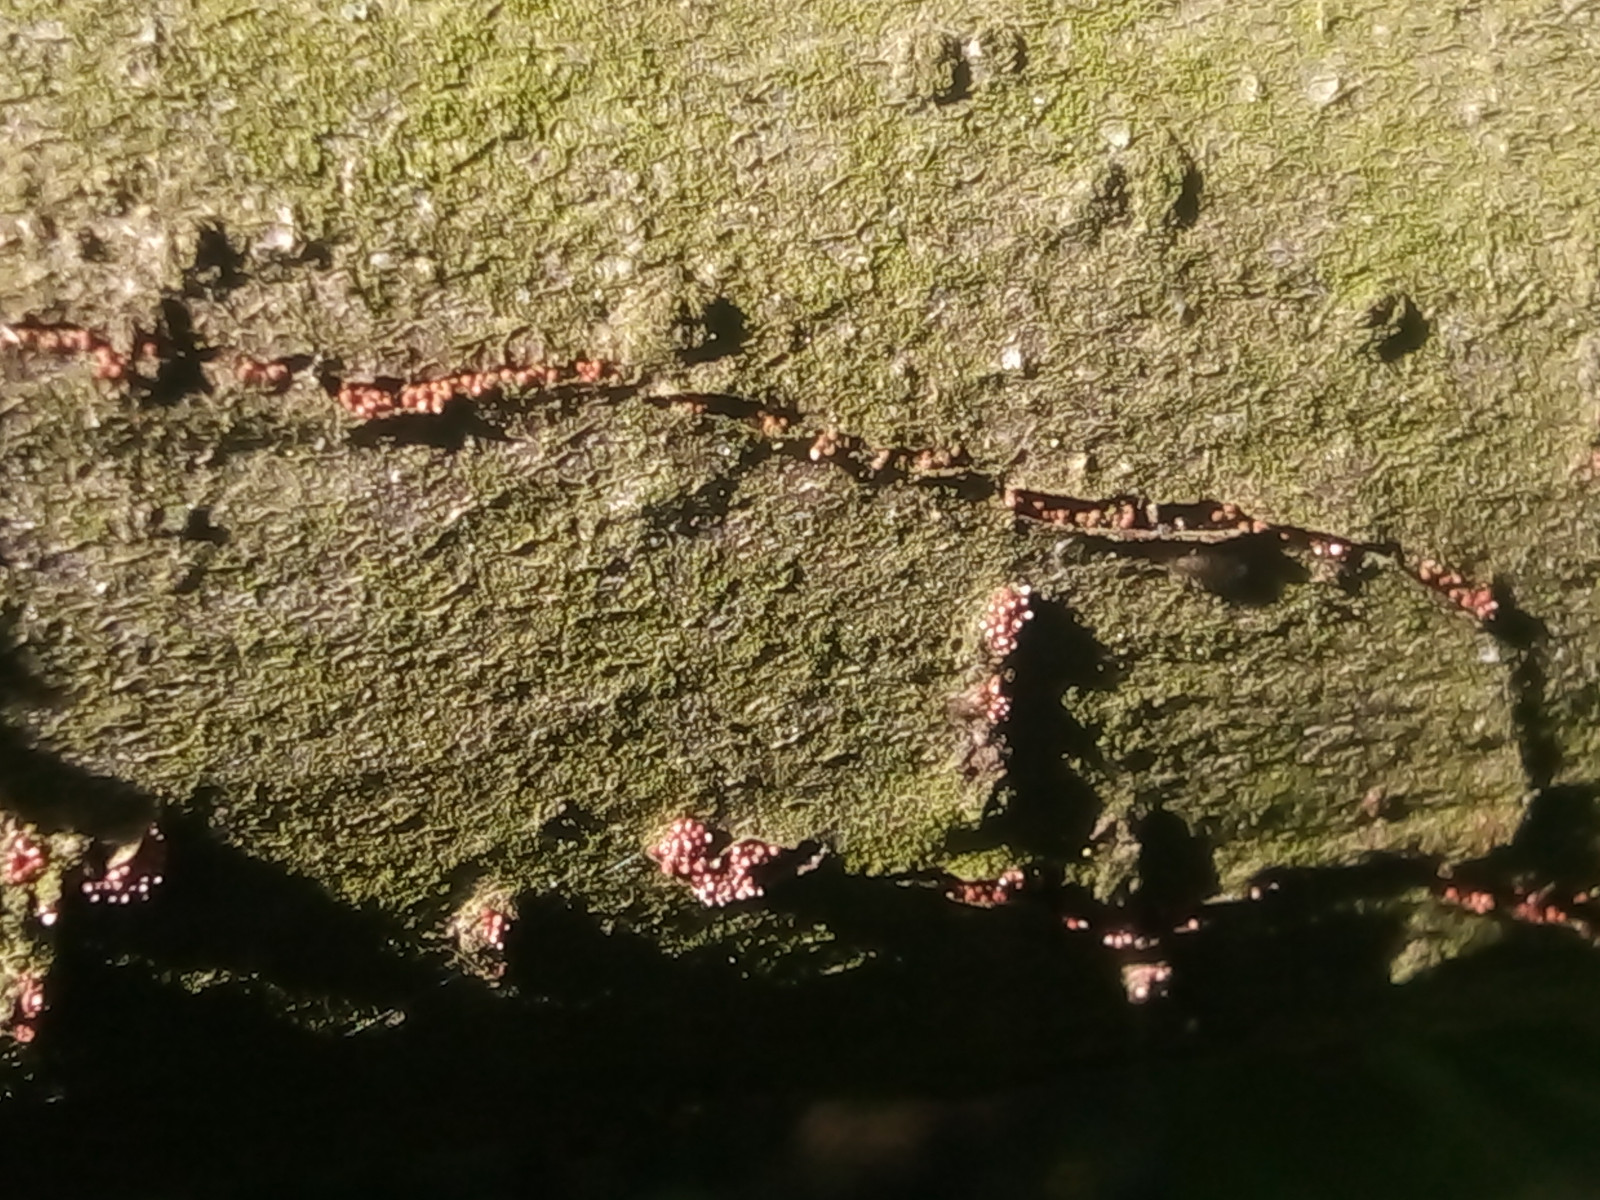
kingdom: Fungi
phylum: Ascomycota
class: Sordariomycetes
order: Hypocreales
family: Nectriaceae
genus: Neonectria
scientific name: Neonectria ditissima
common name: frugttræ-cinnobersvamp
